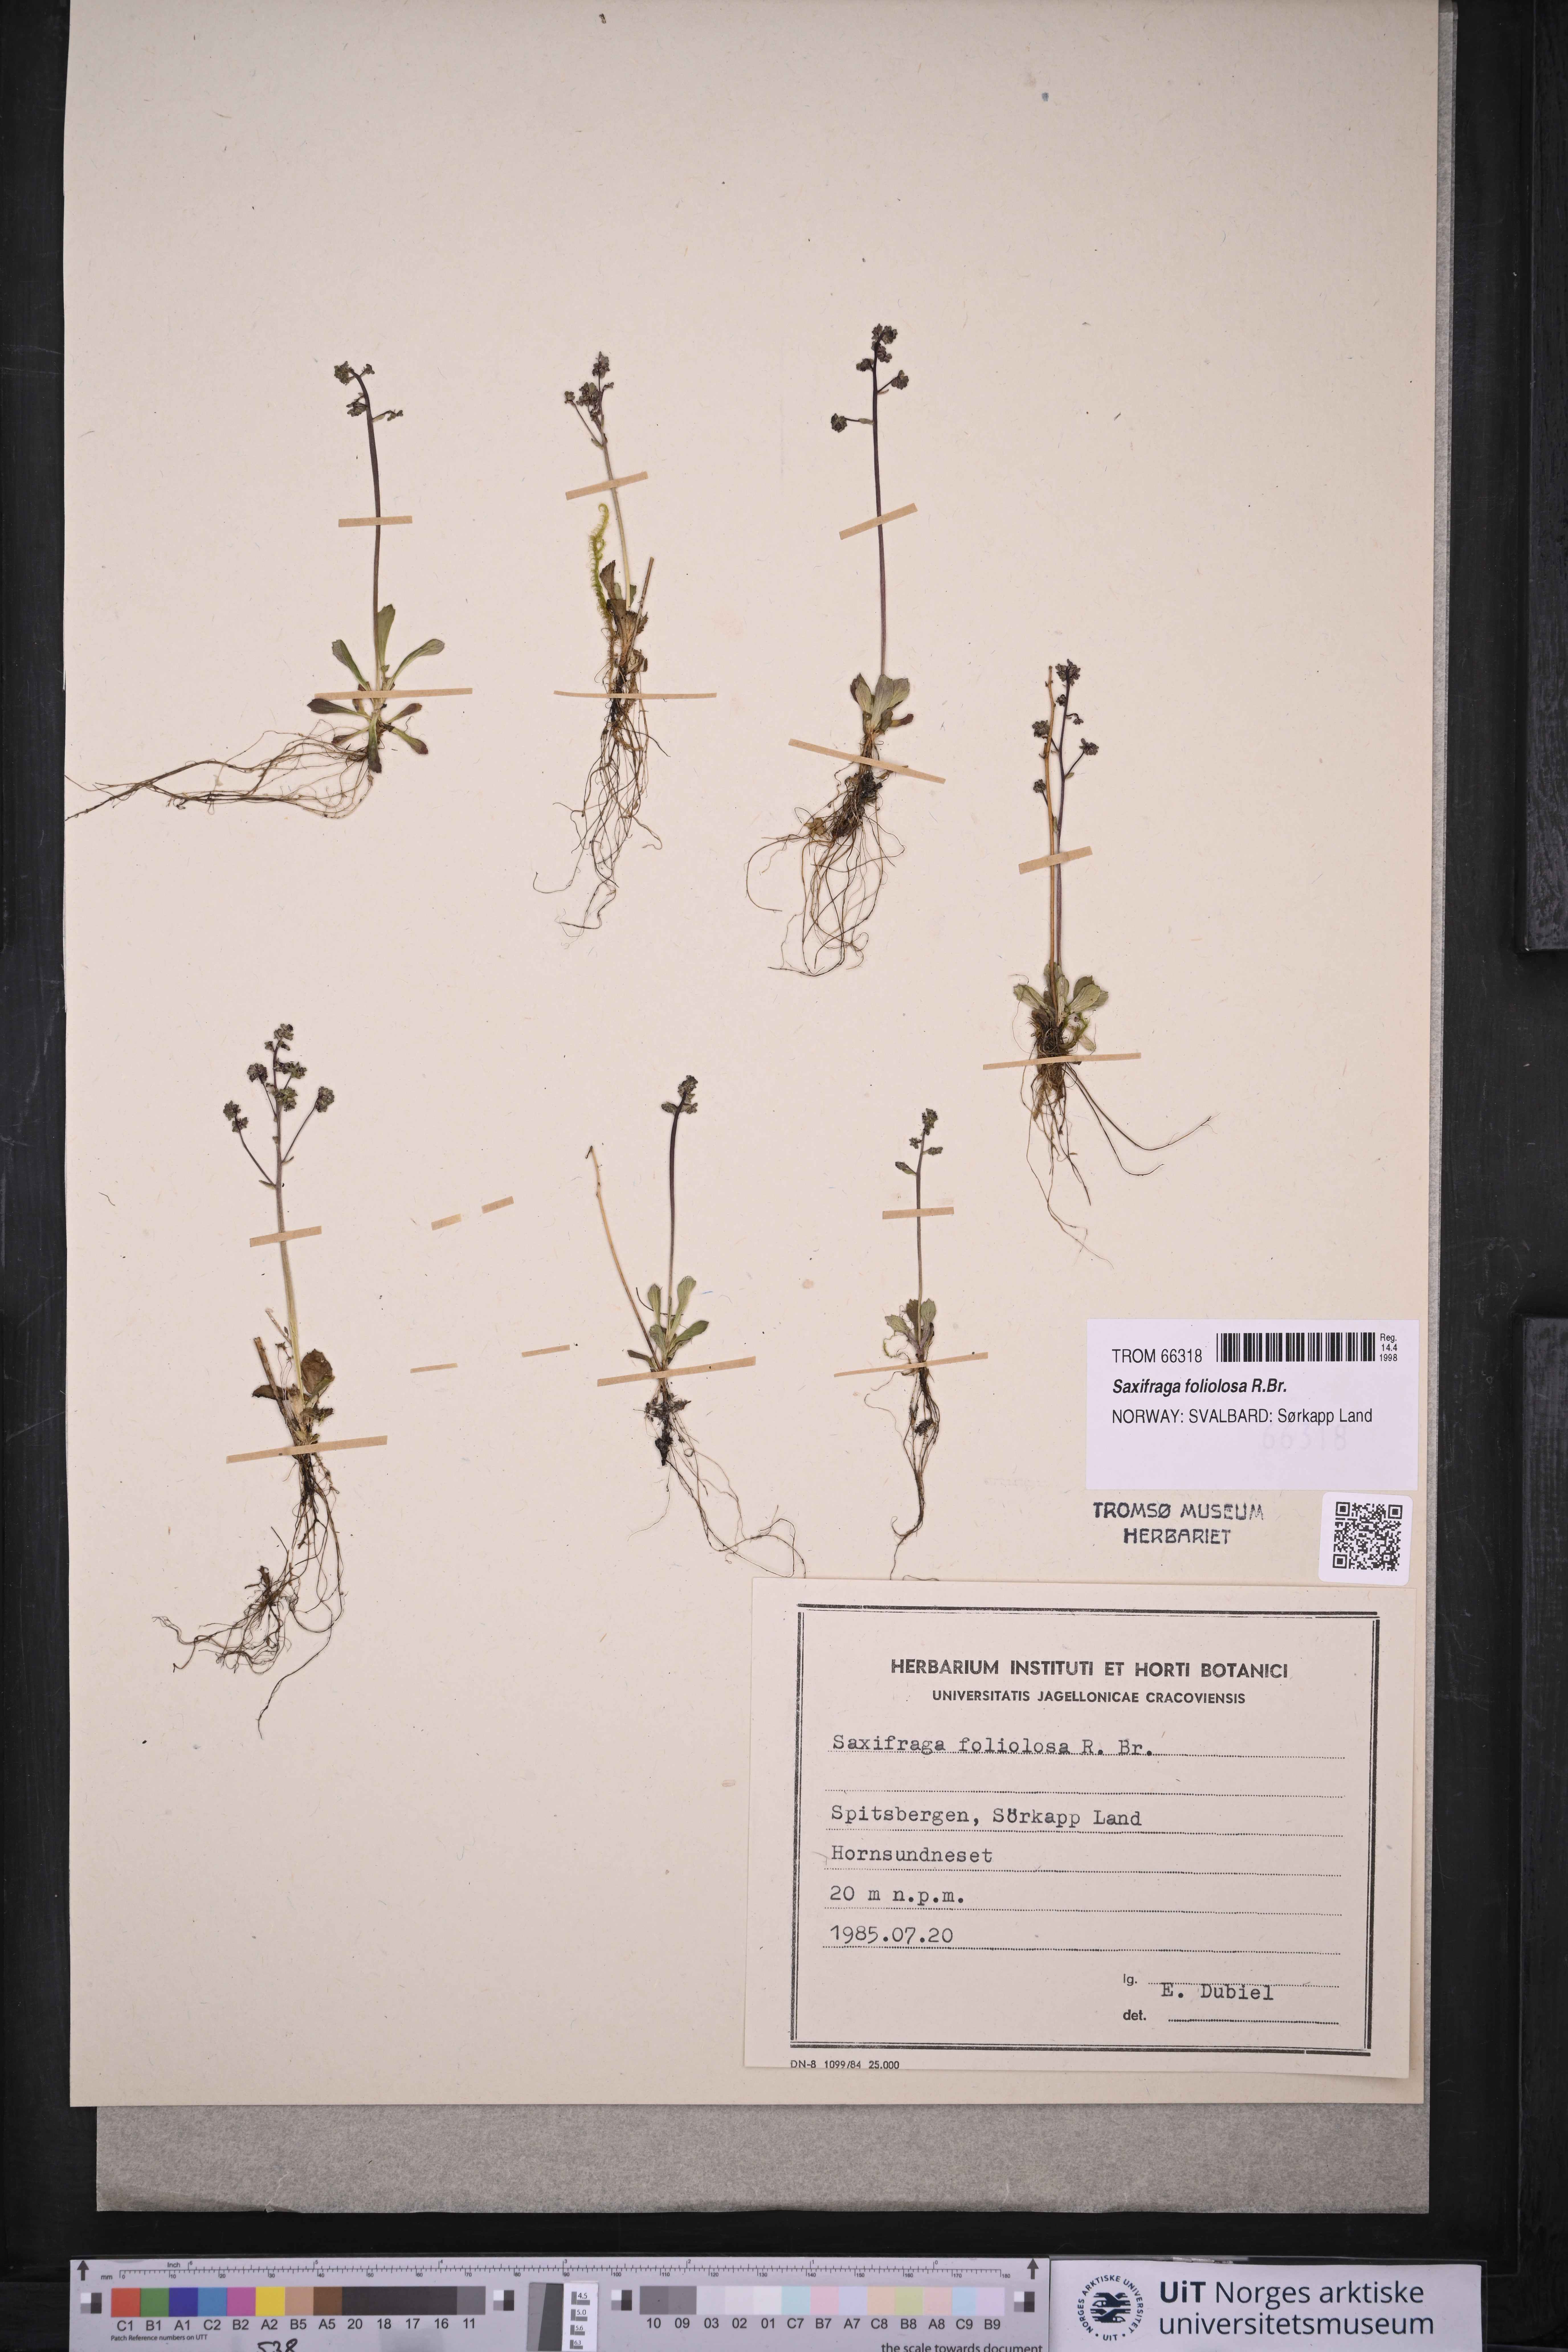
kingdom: Plantae
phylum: Tracheophyta
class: Magnoliopsida
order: Saxifragales
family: Saxifragaceae
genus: Micranthes
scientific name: Micranthes foliolosa
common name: Leafystem saxifrage
